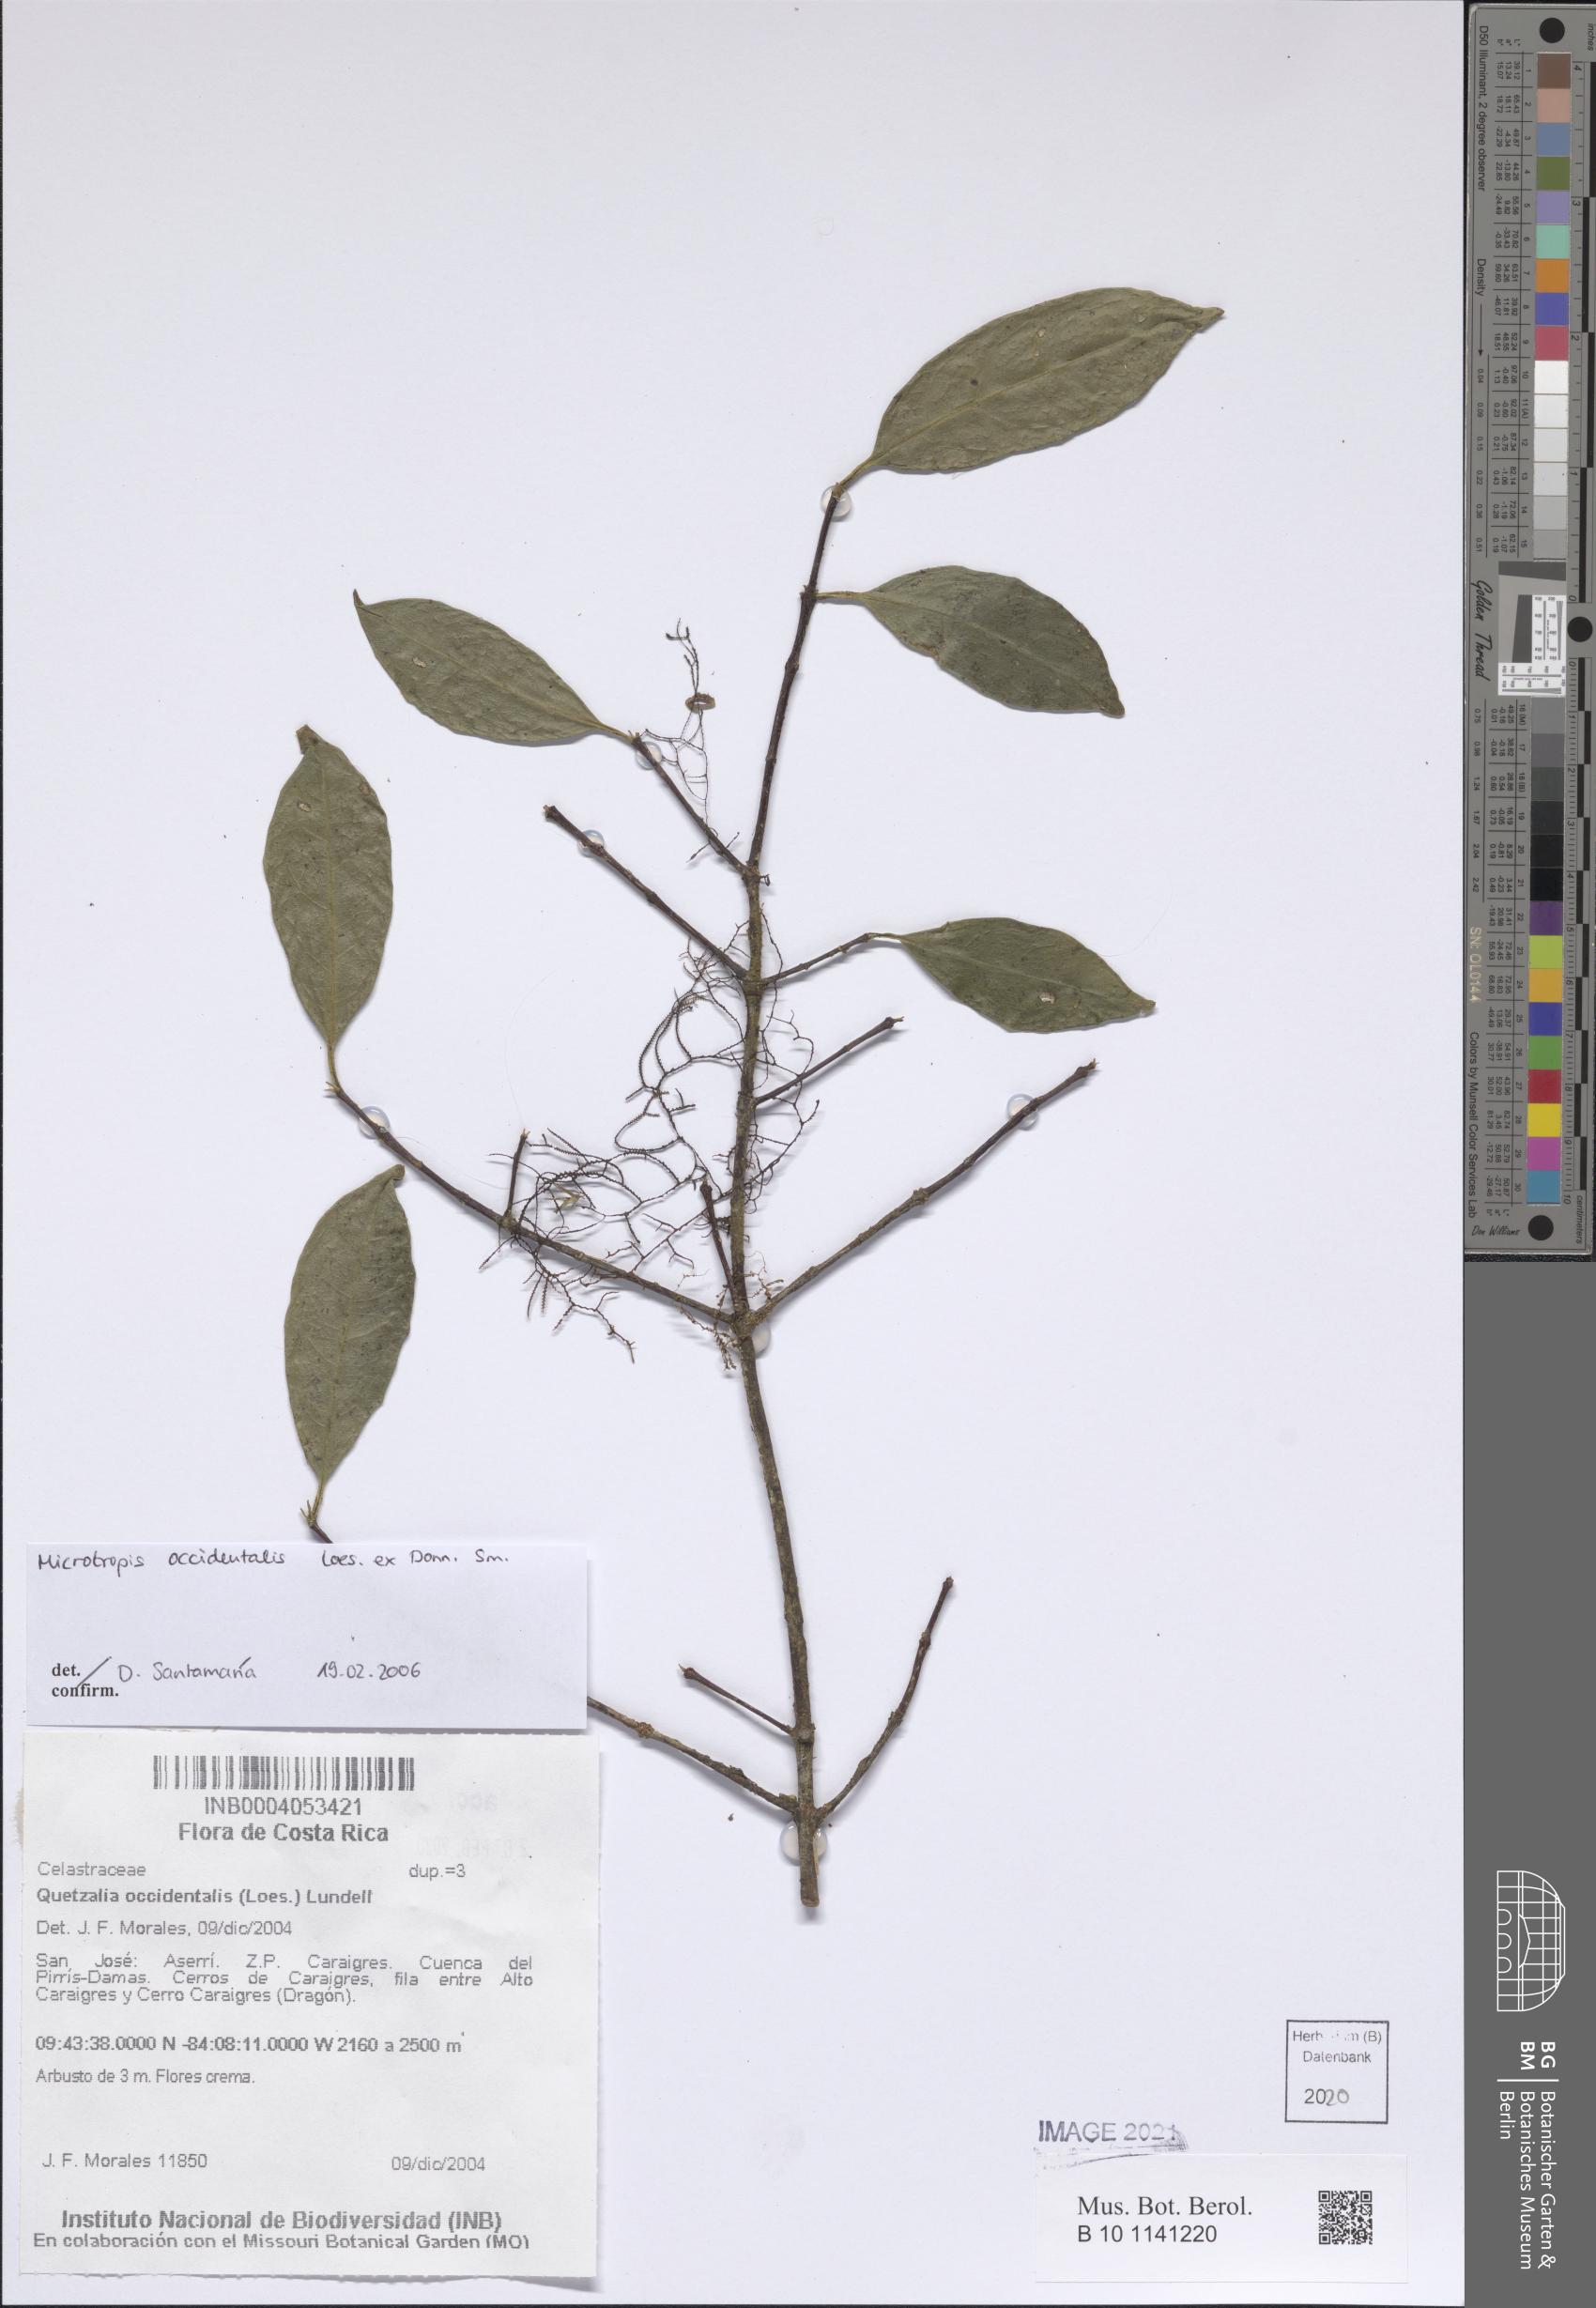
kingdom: Plantae
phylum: Tracheophyta
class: Magnoliopsida
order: Celastrales
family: Celastraceae
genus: Quetzalia
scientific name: Quetzalia occidentalis
